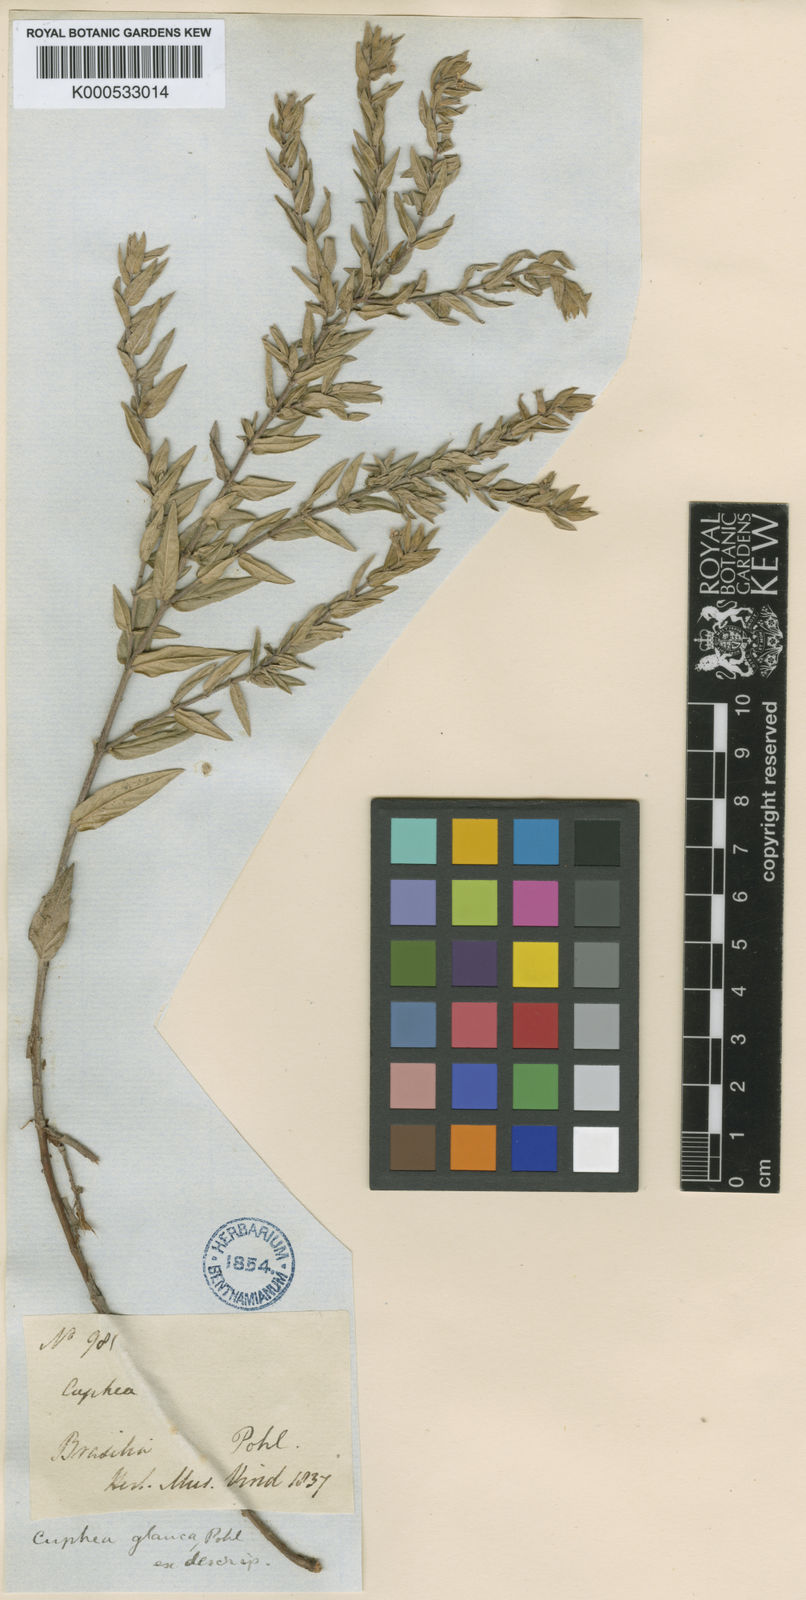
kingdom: Plantae
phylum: Tracheophyta
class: Magnoliopsida
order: Myrtales
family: Lythraceae
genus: Cuphea
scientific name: Cuphea
